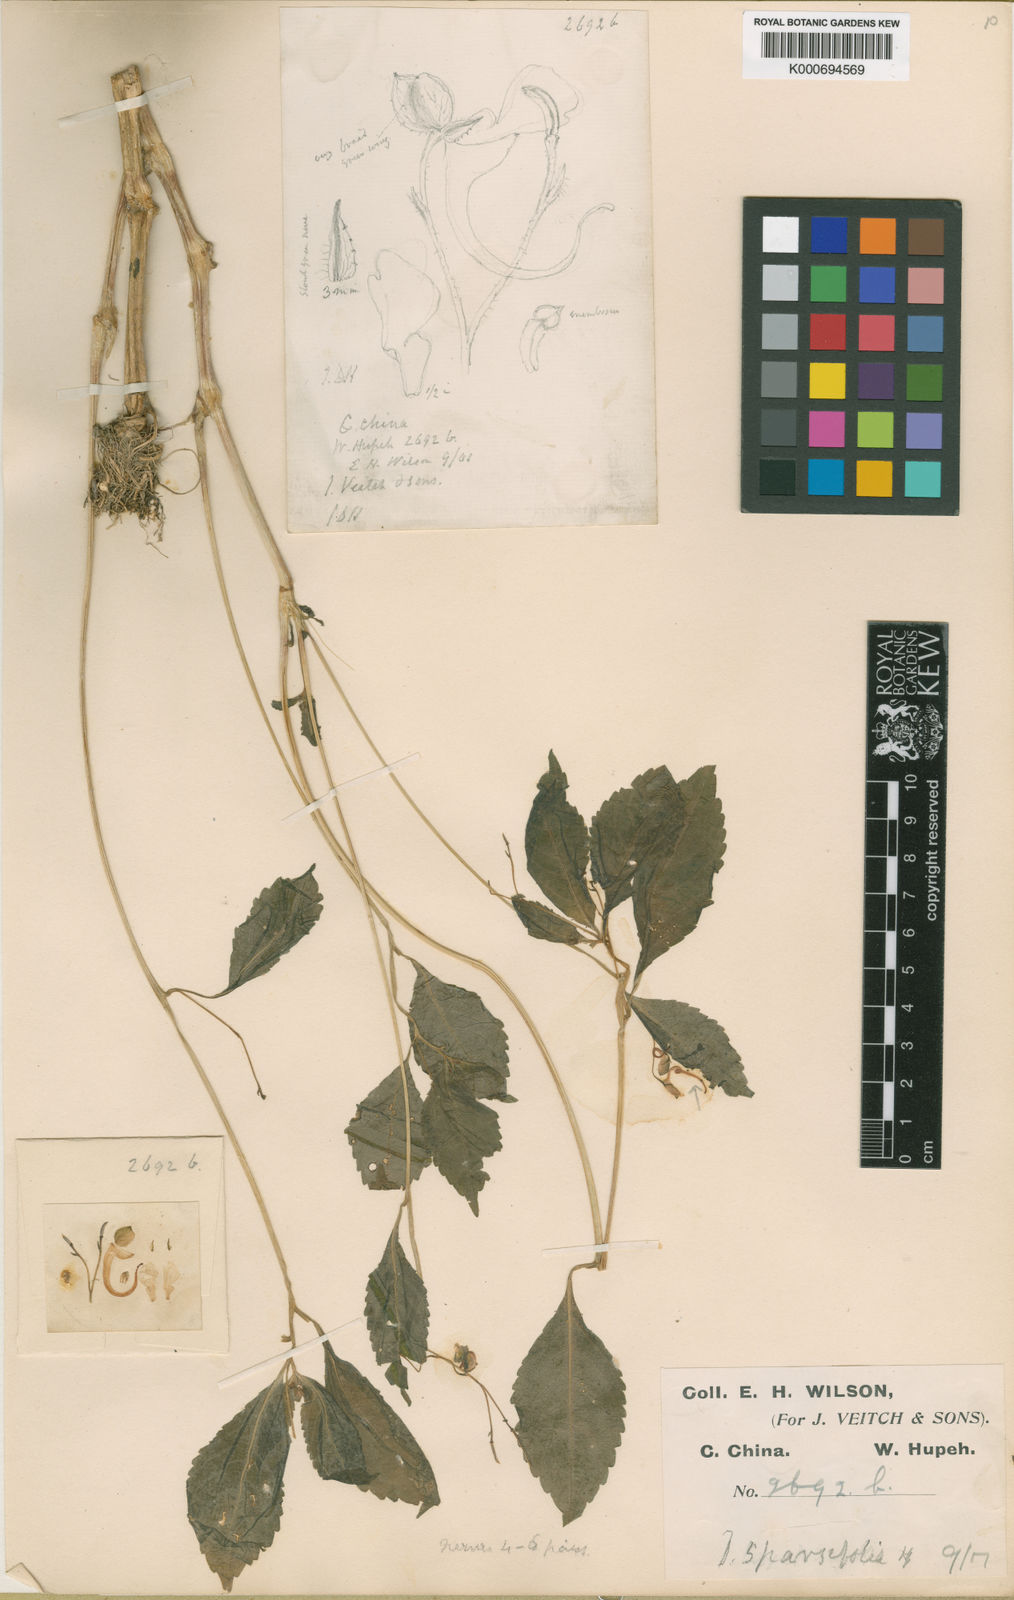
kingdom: Plantae
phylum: Tracheophyta
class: Magnoliopsida
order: Ericales
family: Balsaminaceae
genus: Impatiens
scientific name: Impatiens
